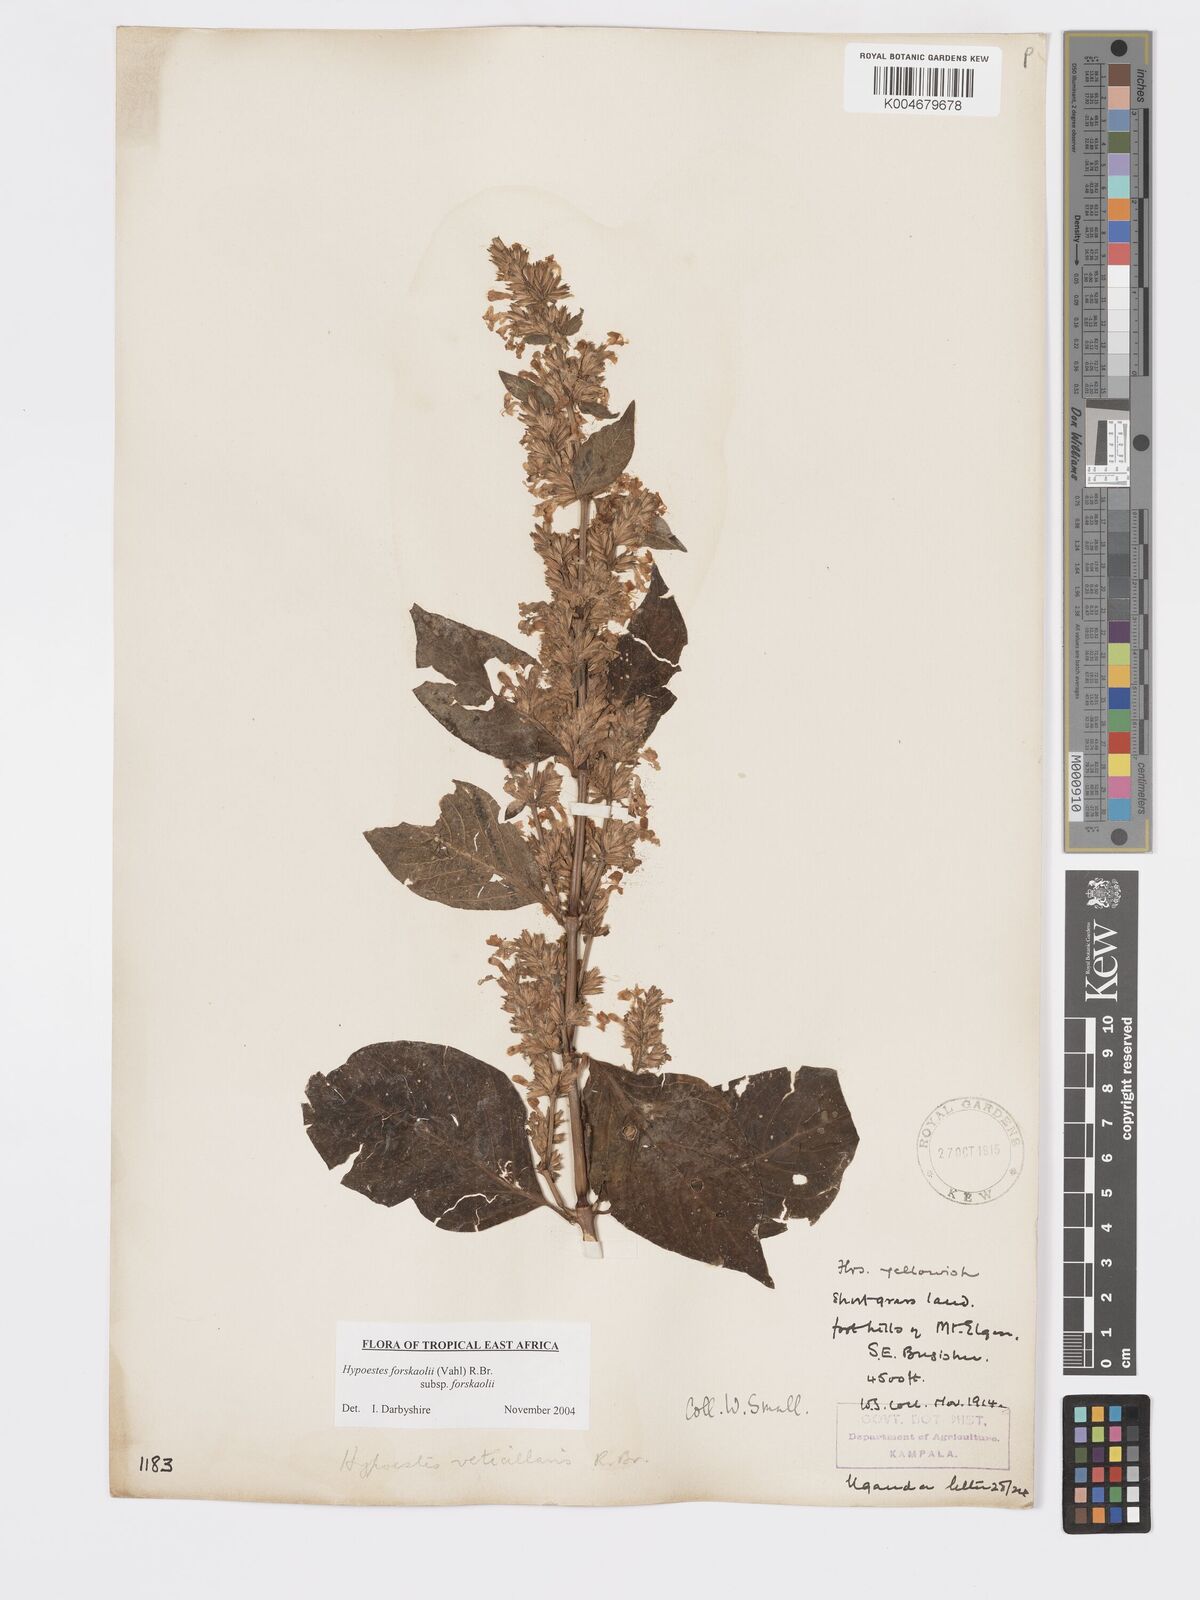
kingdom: Plantae
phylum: Tracheophyta
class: Magnoliopsida
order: Lamiales
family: Acanthaceae
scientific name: Acanthaceae
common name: Acanthaceae
